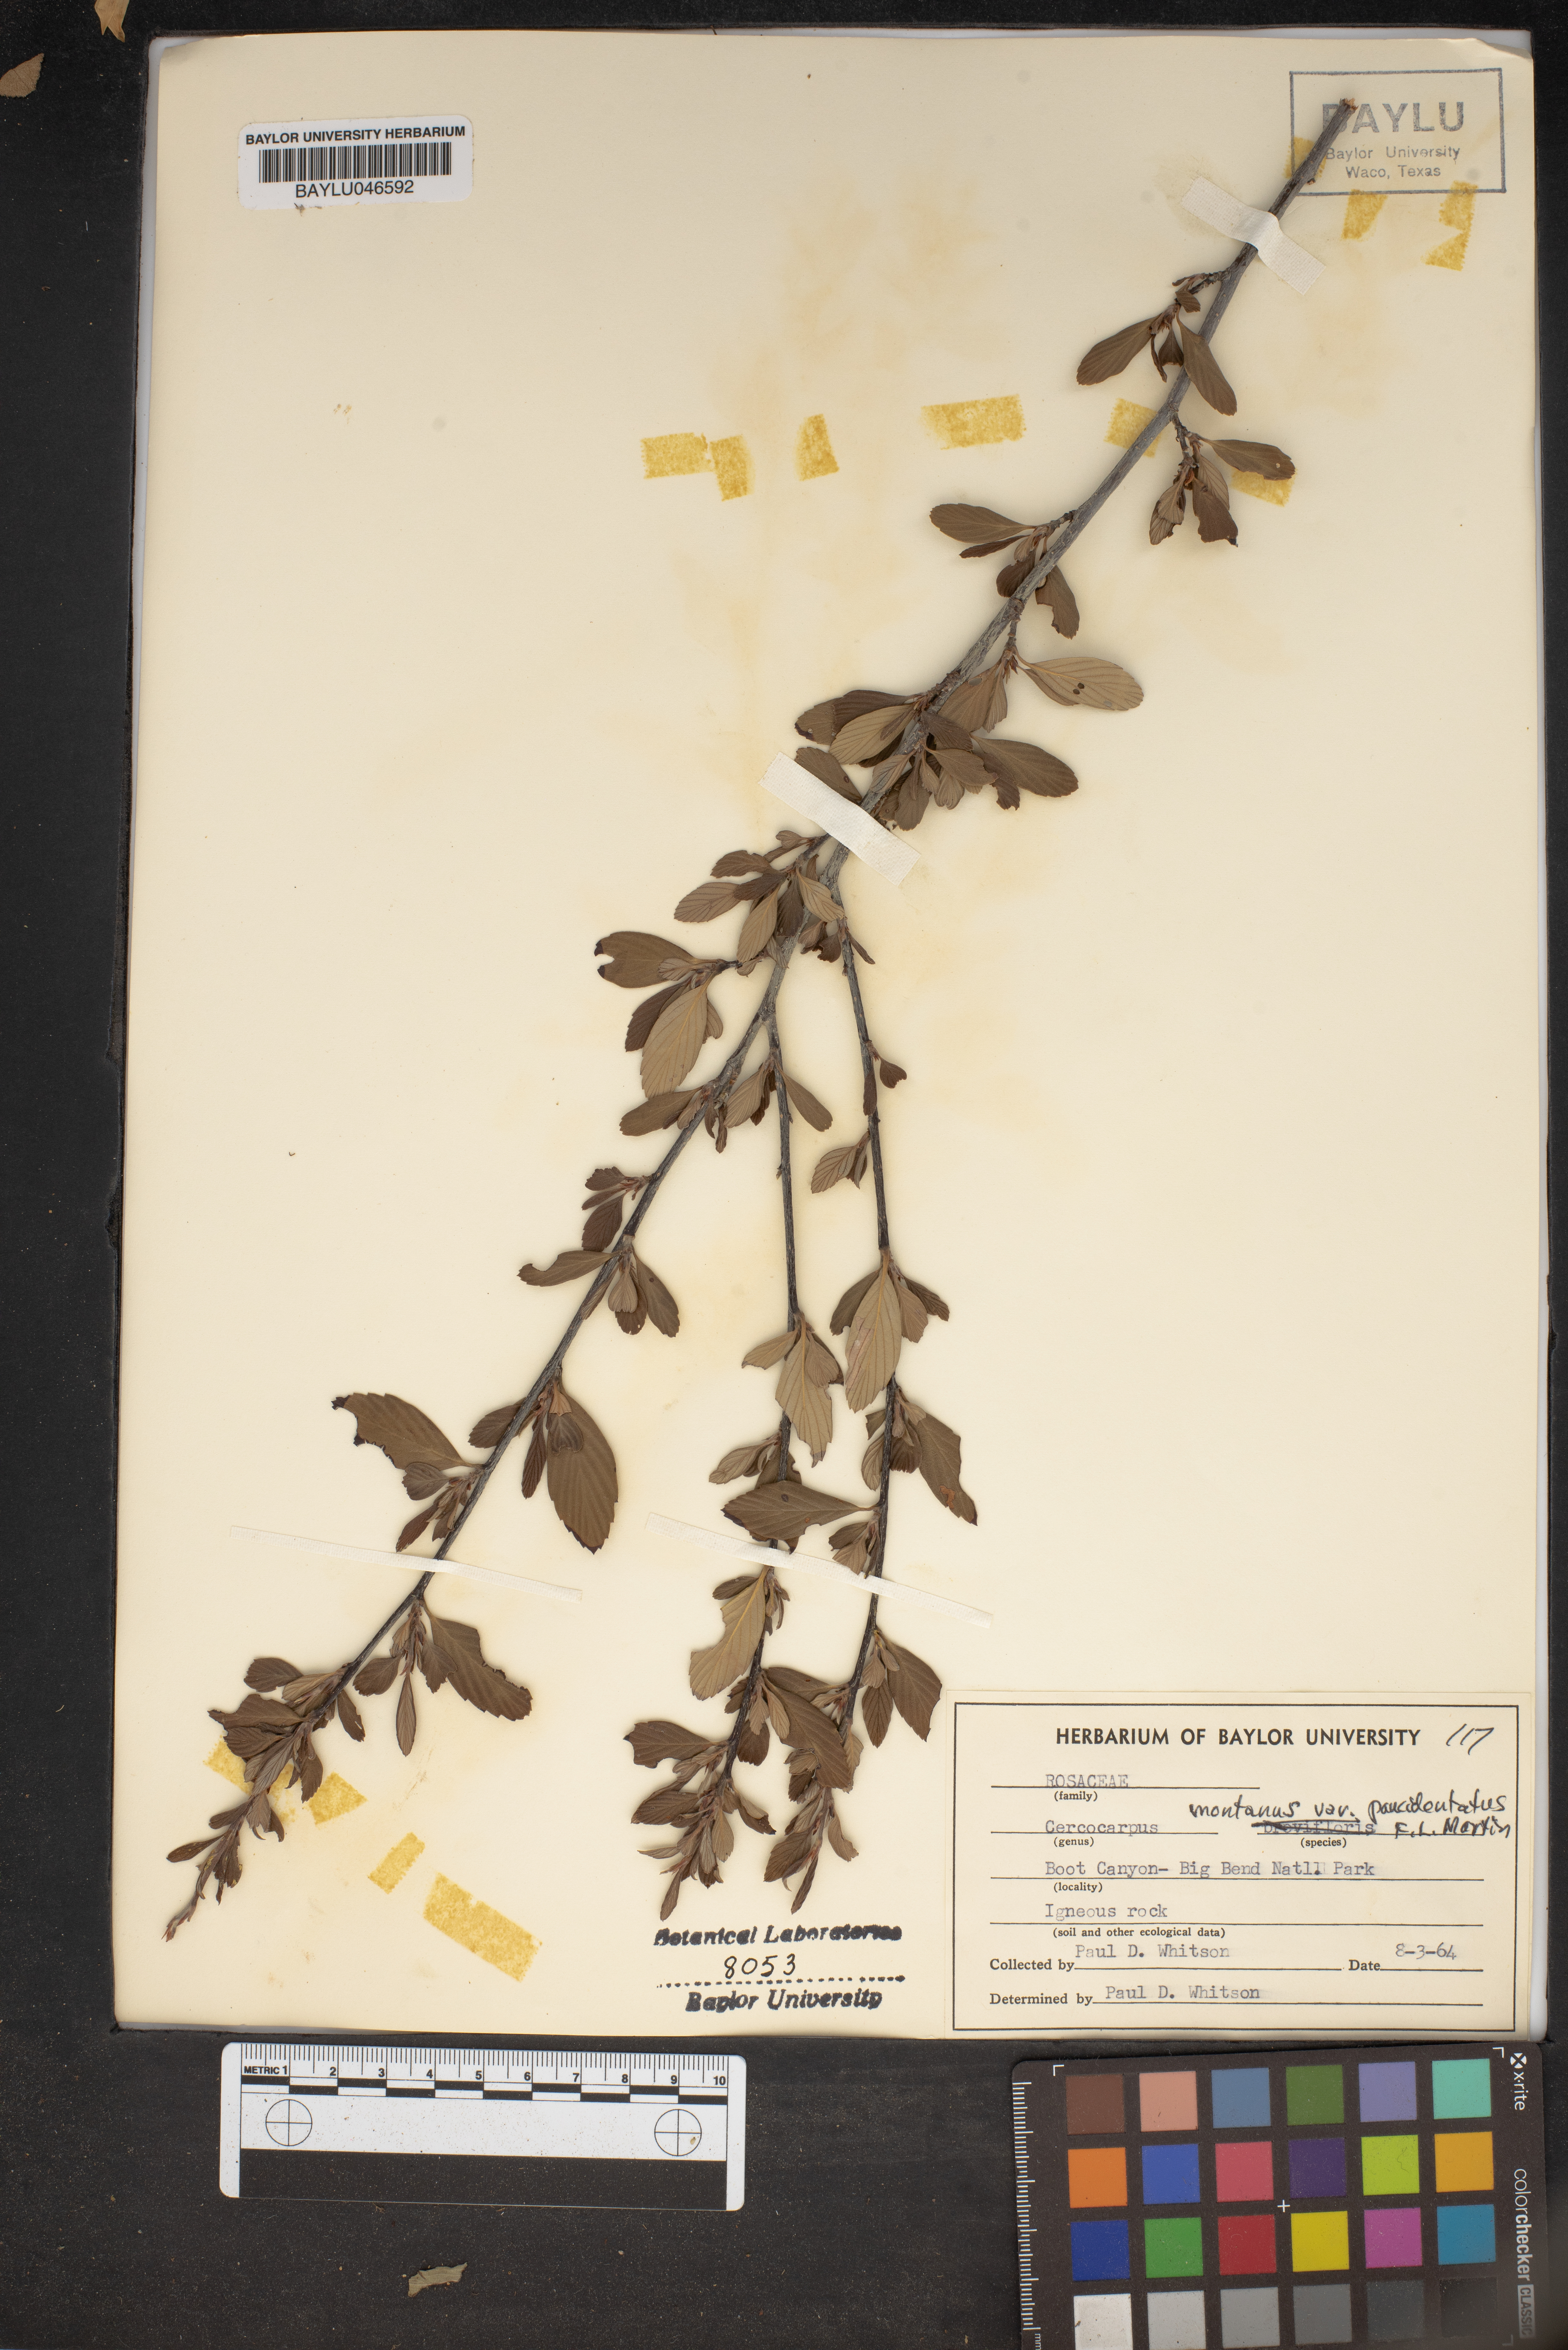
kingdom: Plantae
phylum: Tracheophyta
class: Magnoliopsida
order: Rosales
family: Rosaceae
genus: Cercocarpus
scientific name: Cercocarpus breviflorus
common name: Wright's mountain-mahogany
